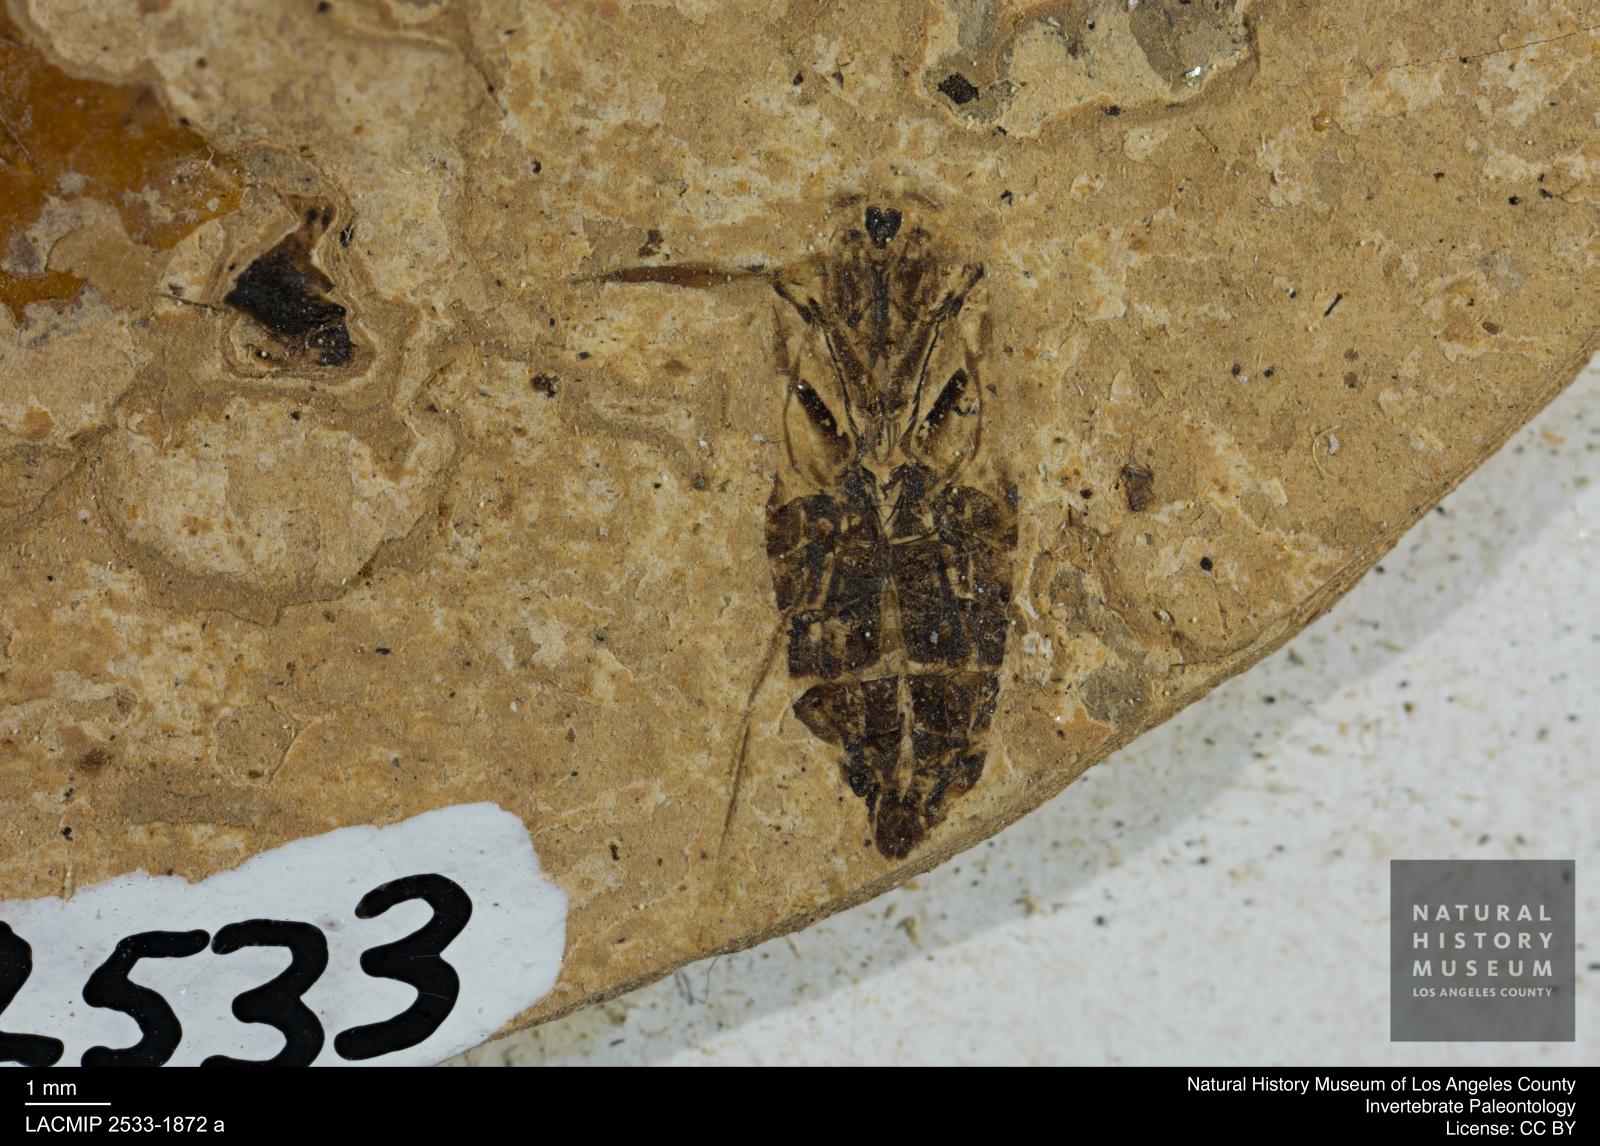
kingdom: Animalia
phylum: Arthropoda
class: Insecta
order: Hemiptera
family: Notonectidae
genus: Anisops
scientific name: Anisops Notonecta deichmuelleri
